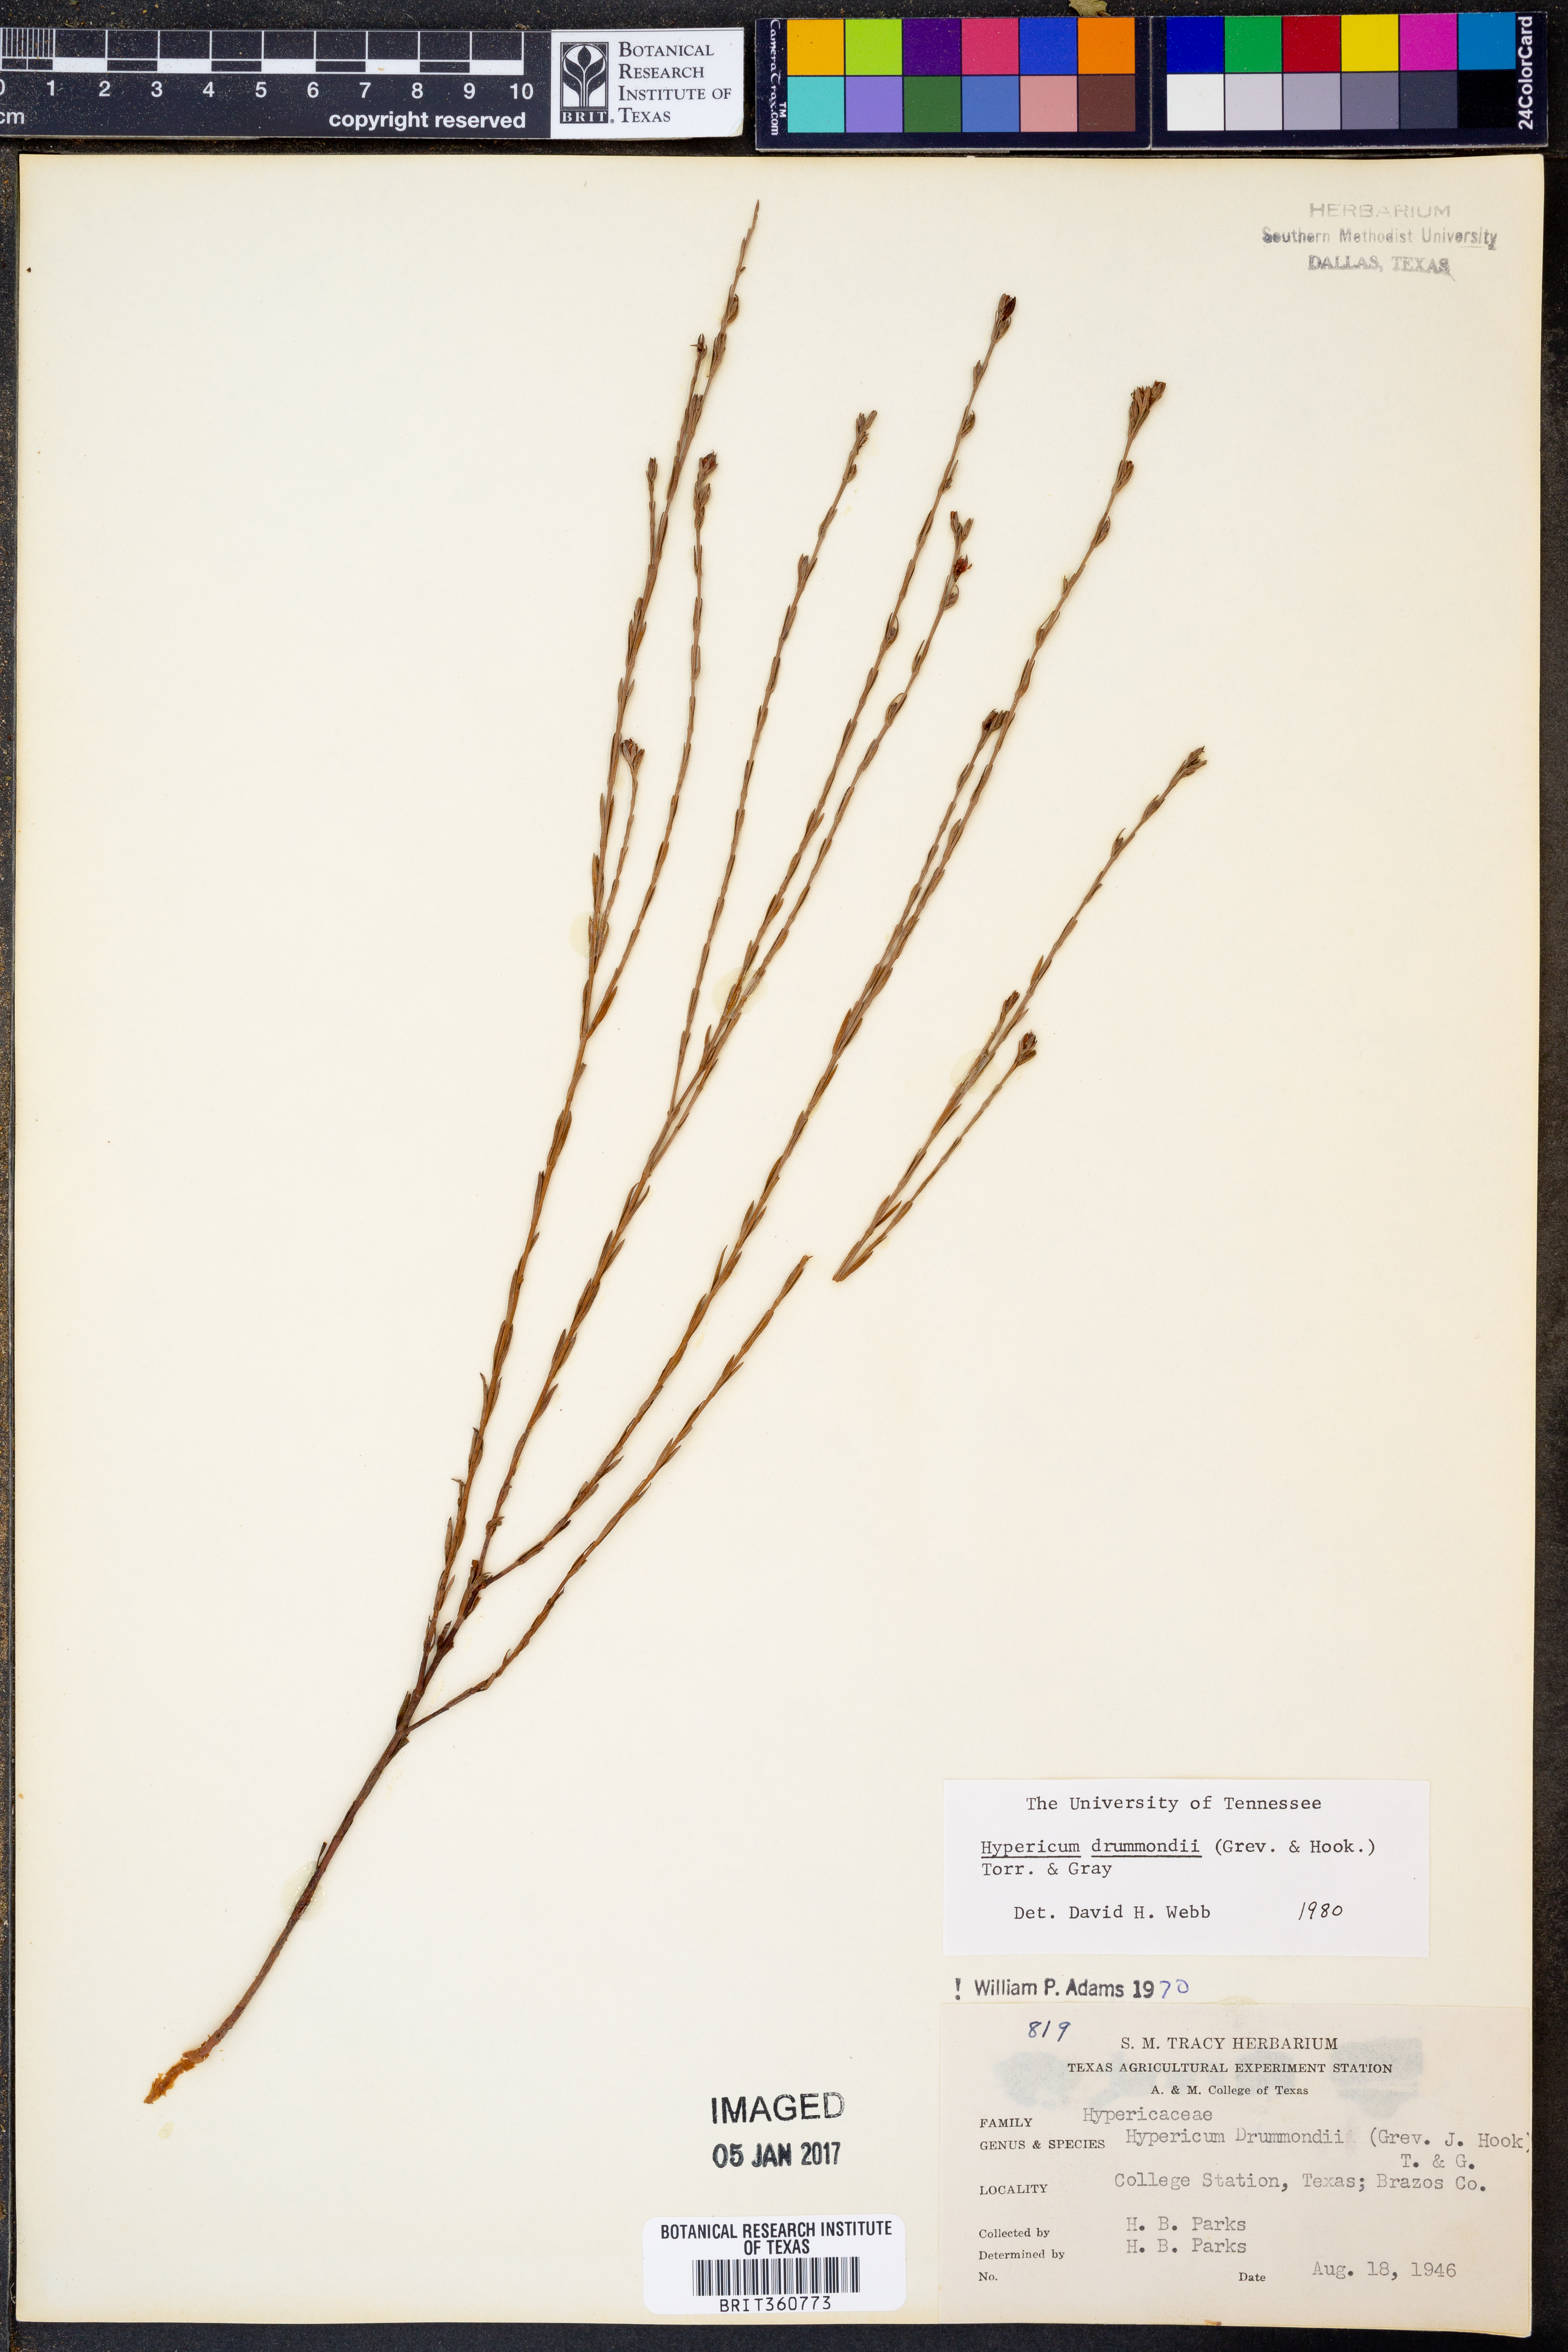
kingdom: Plantae
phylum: Tracheophyta
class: Magnoliopsida
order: Malpighiales
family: Hypericaceae
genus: Hypericum
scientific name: Hypericum drummondii
